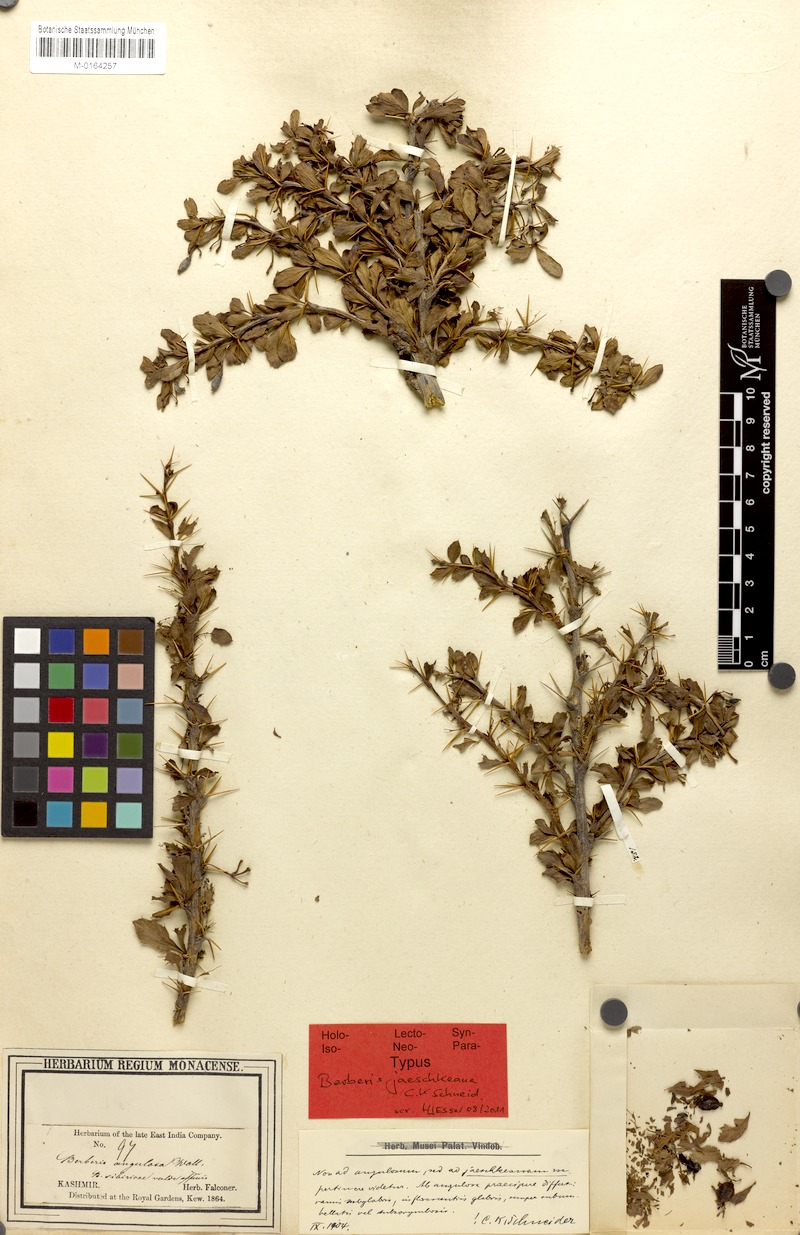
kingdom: Plantae
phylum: Tracheophyta
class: Magnoliopsida
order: Ranunculales
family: Berberidaceae
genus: Berberis
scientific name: Berberis jaeschkeana
